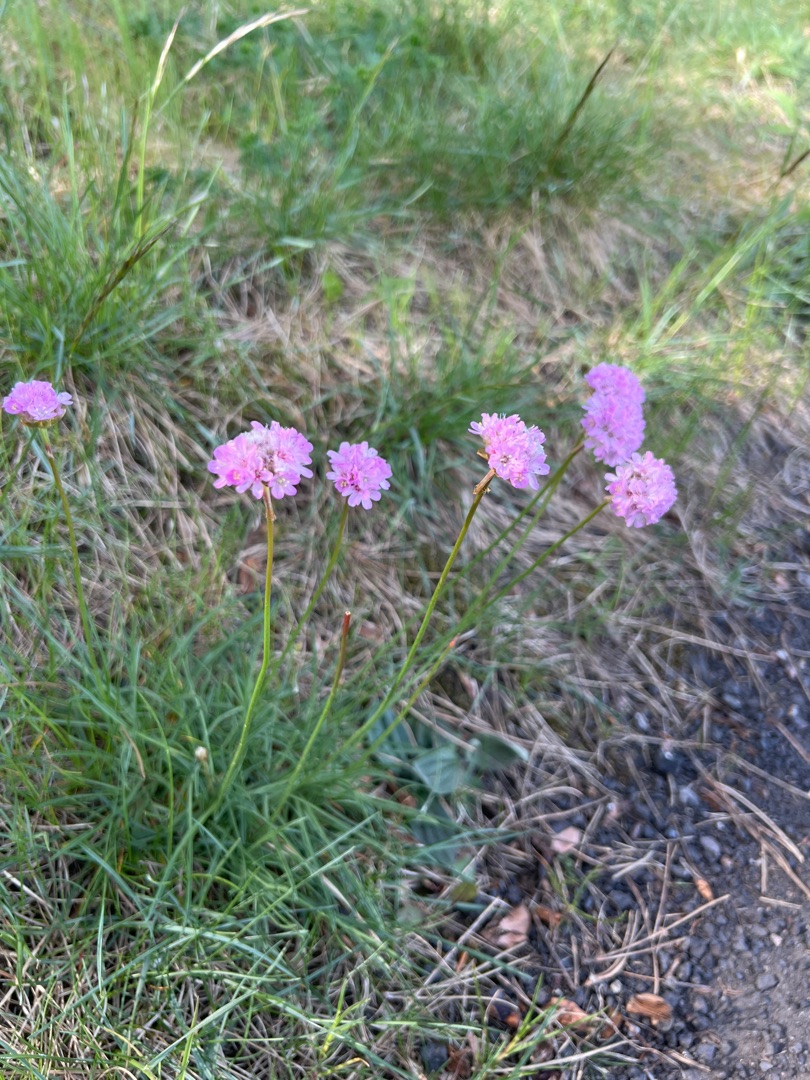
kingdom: Plantae
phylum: Tracheophyta
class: Magnoliopsida
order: Caryophyllales
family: Plumbaginaceae
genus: Armeria
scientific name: Armeria maritima
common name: Vej-engelskgræs
